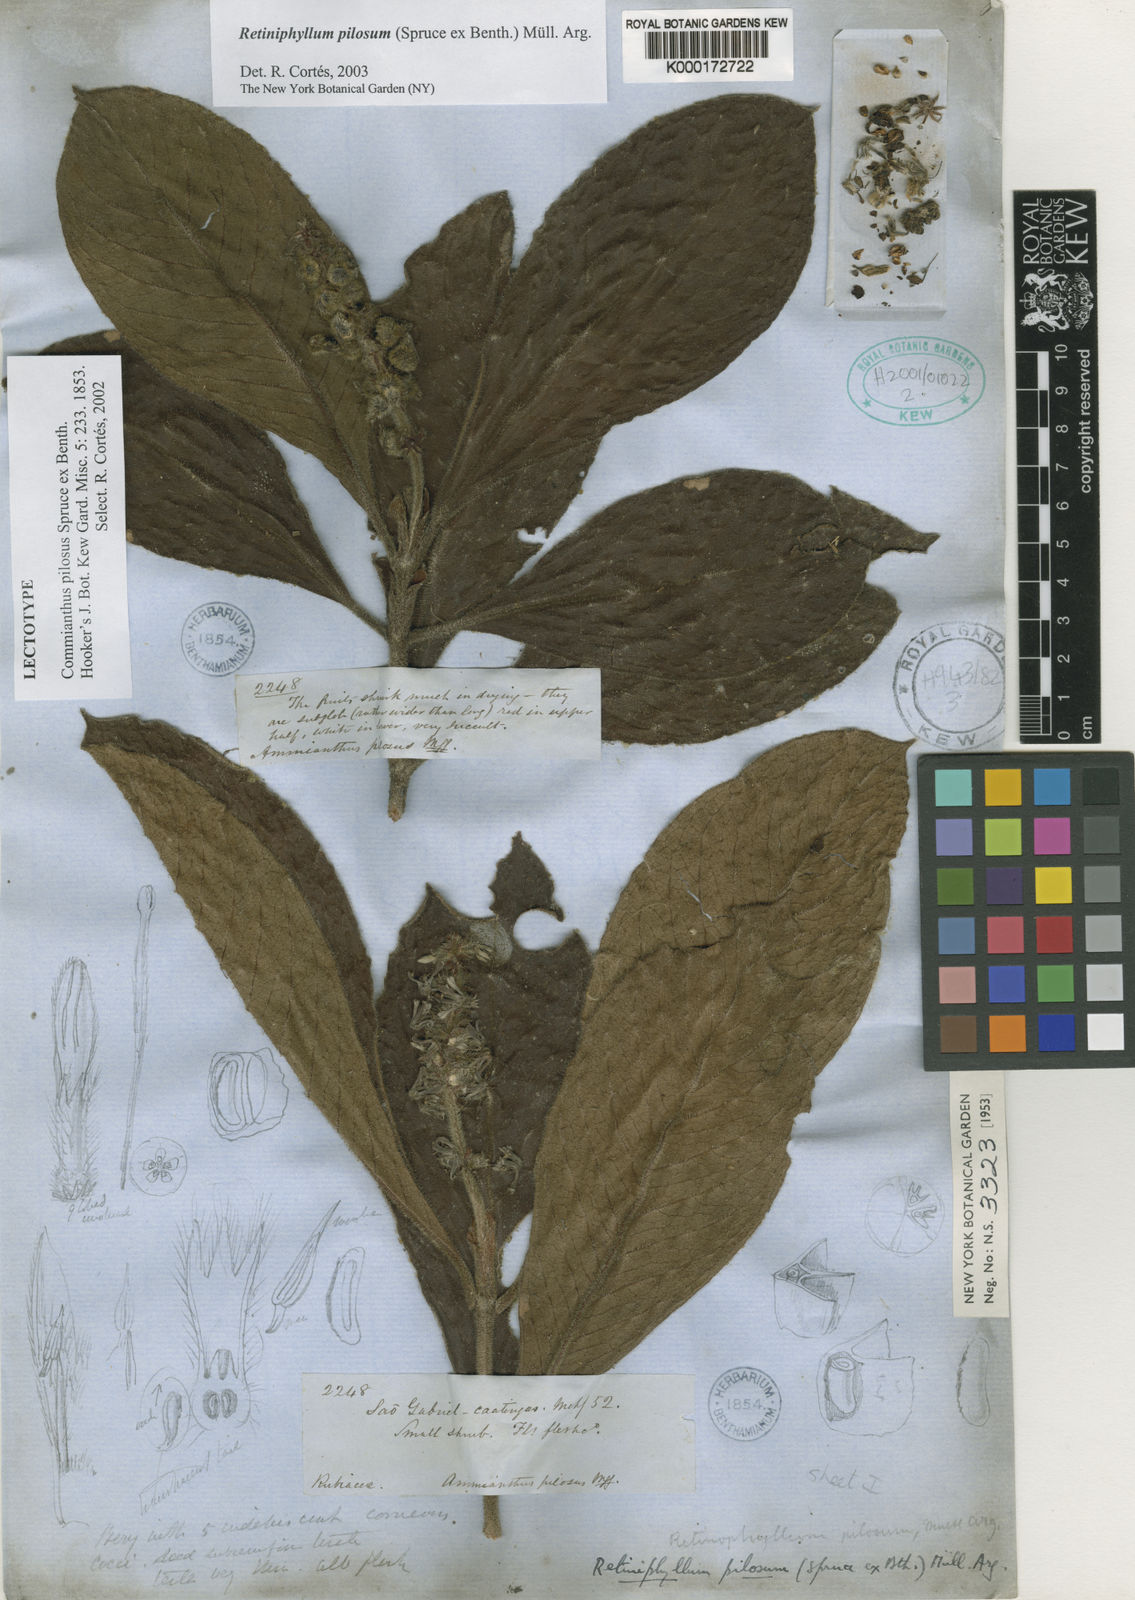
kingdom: Plantae
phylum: Tracheophyta
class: Magnoliopsida
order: Gentianales
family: Rubiaceae
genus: Retiniphyllum
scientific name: Retiniphyllum pilosum
